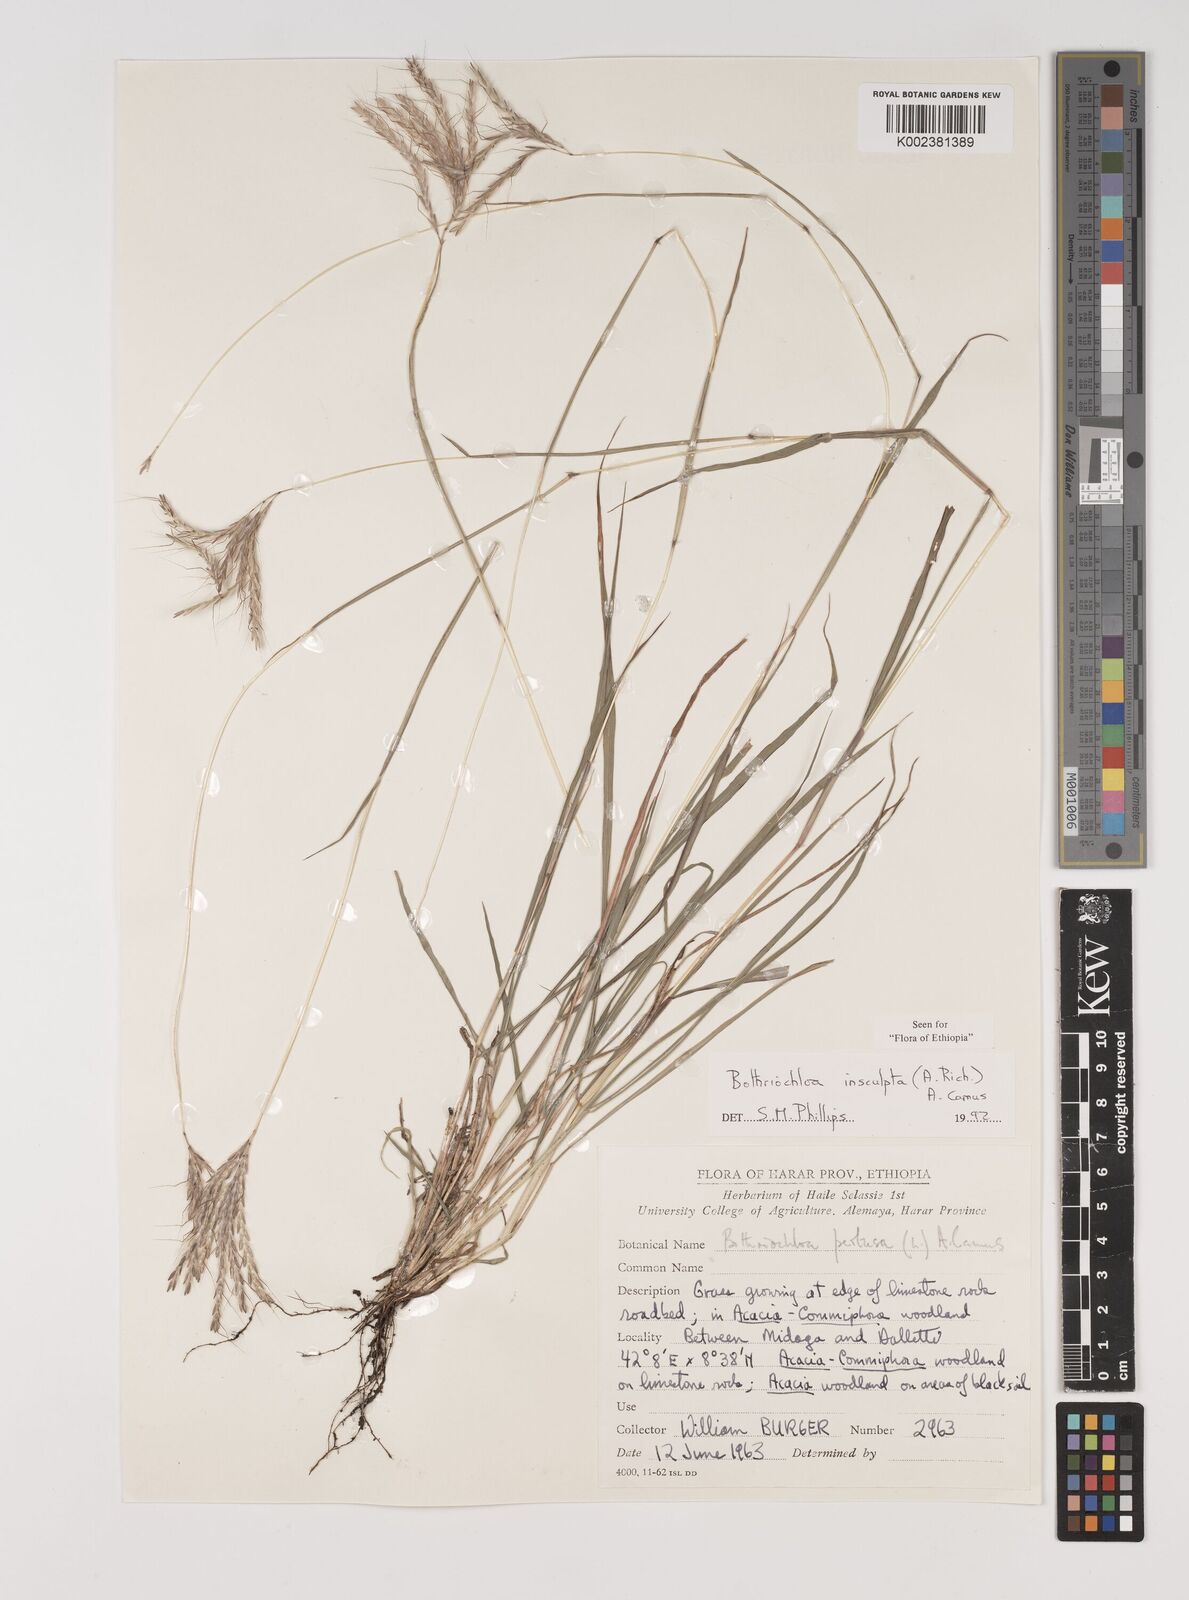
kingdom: Plantae
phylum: Tracheophyta
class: Liliopsida
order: Poales
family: Poaceae
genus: Bothriochloa
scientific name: Bothriochloa insculpta
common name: Creeping-bluegrass
